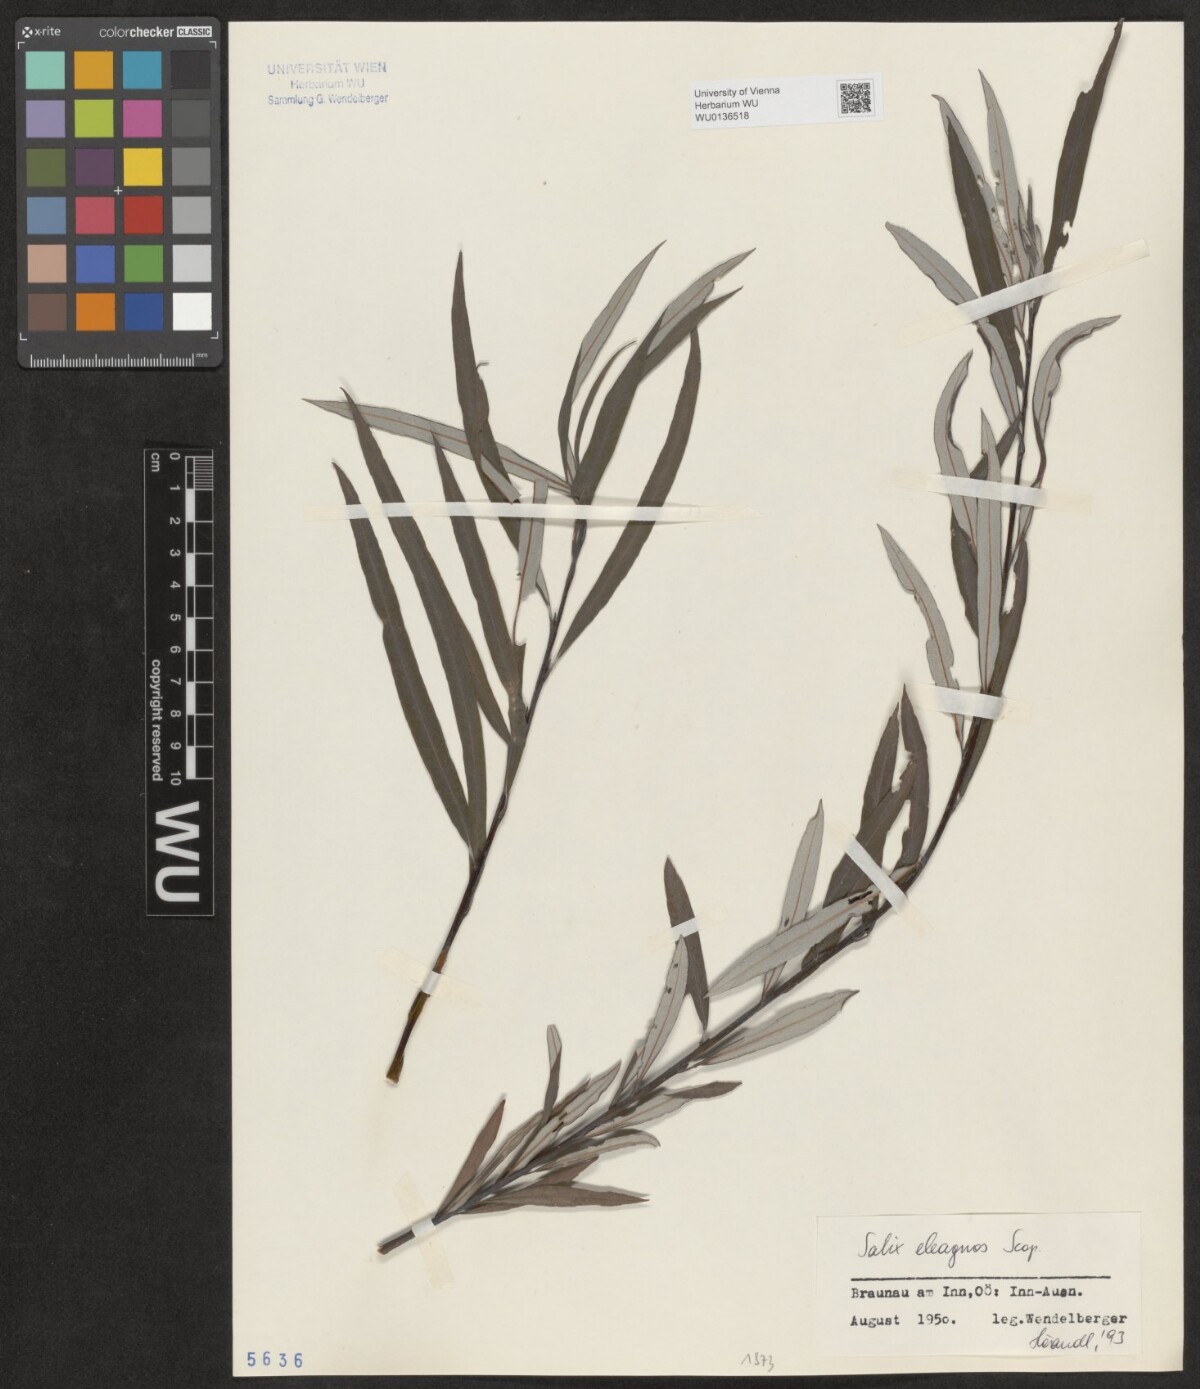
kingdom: Plantae
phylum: Tracheophyta
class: Magnoliopsida
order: Malpighiales
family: Salicaceae
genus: Salix
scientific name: Salix eleagnos
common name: Elaeagnus willow
